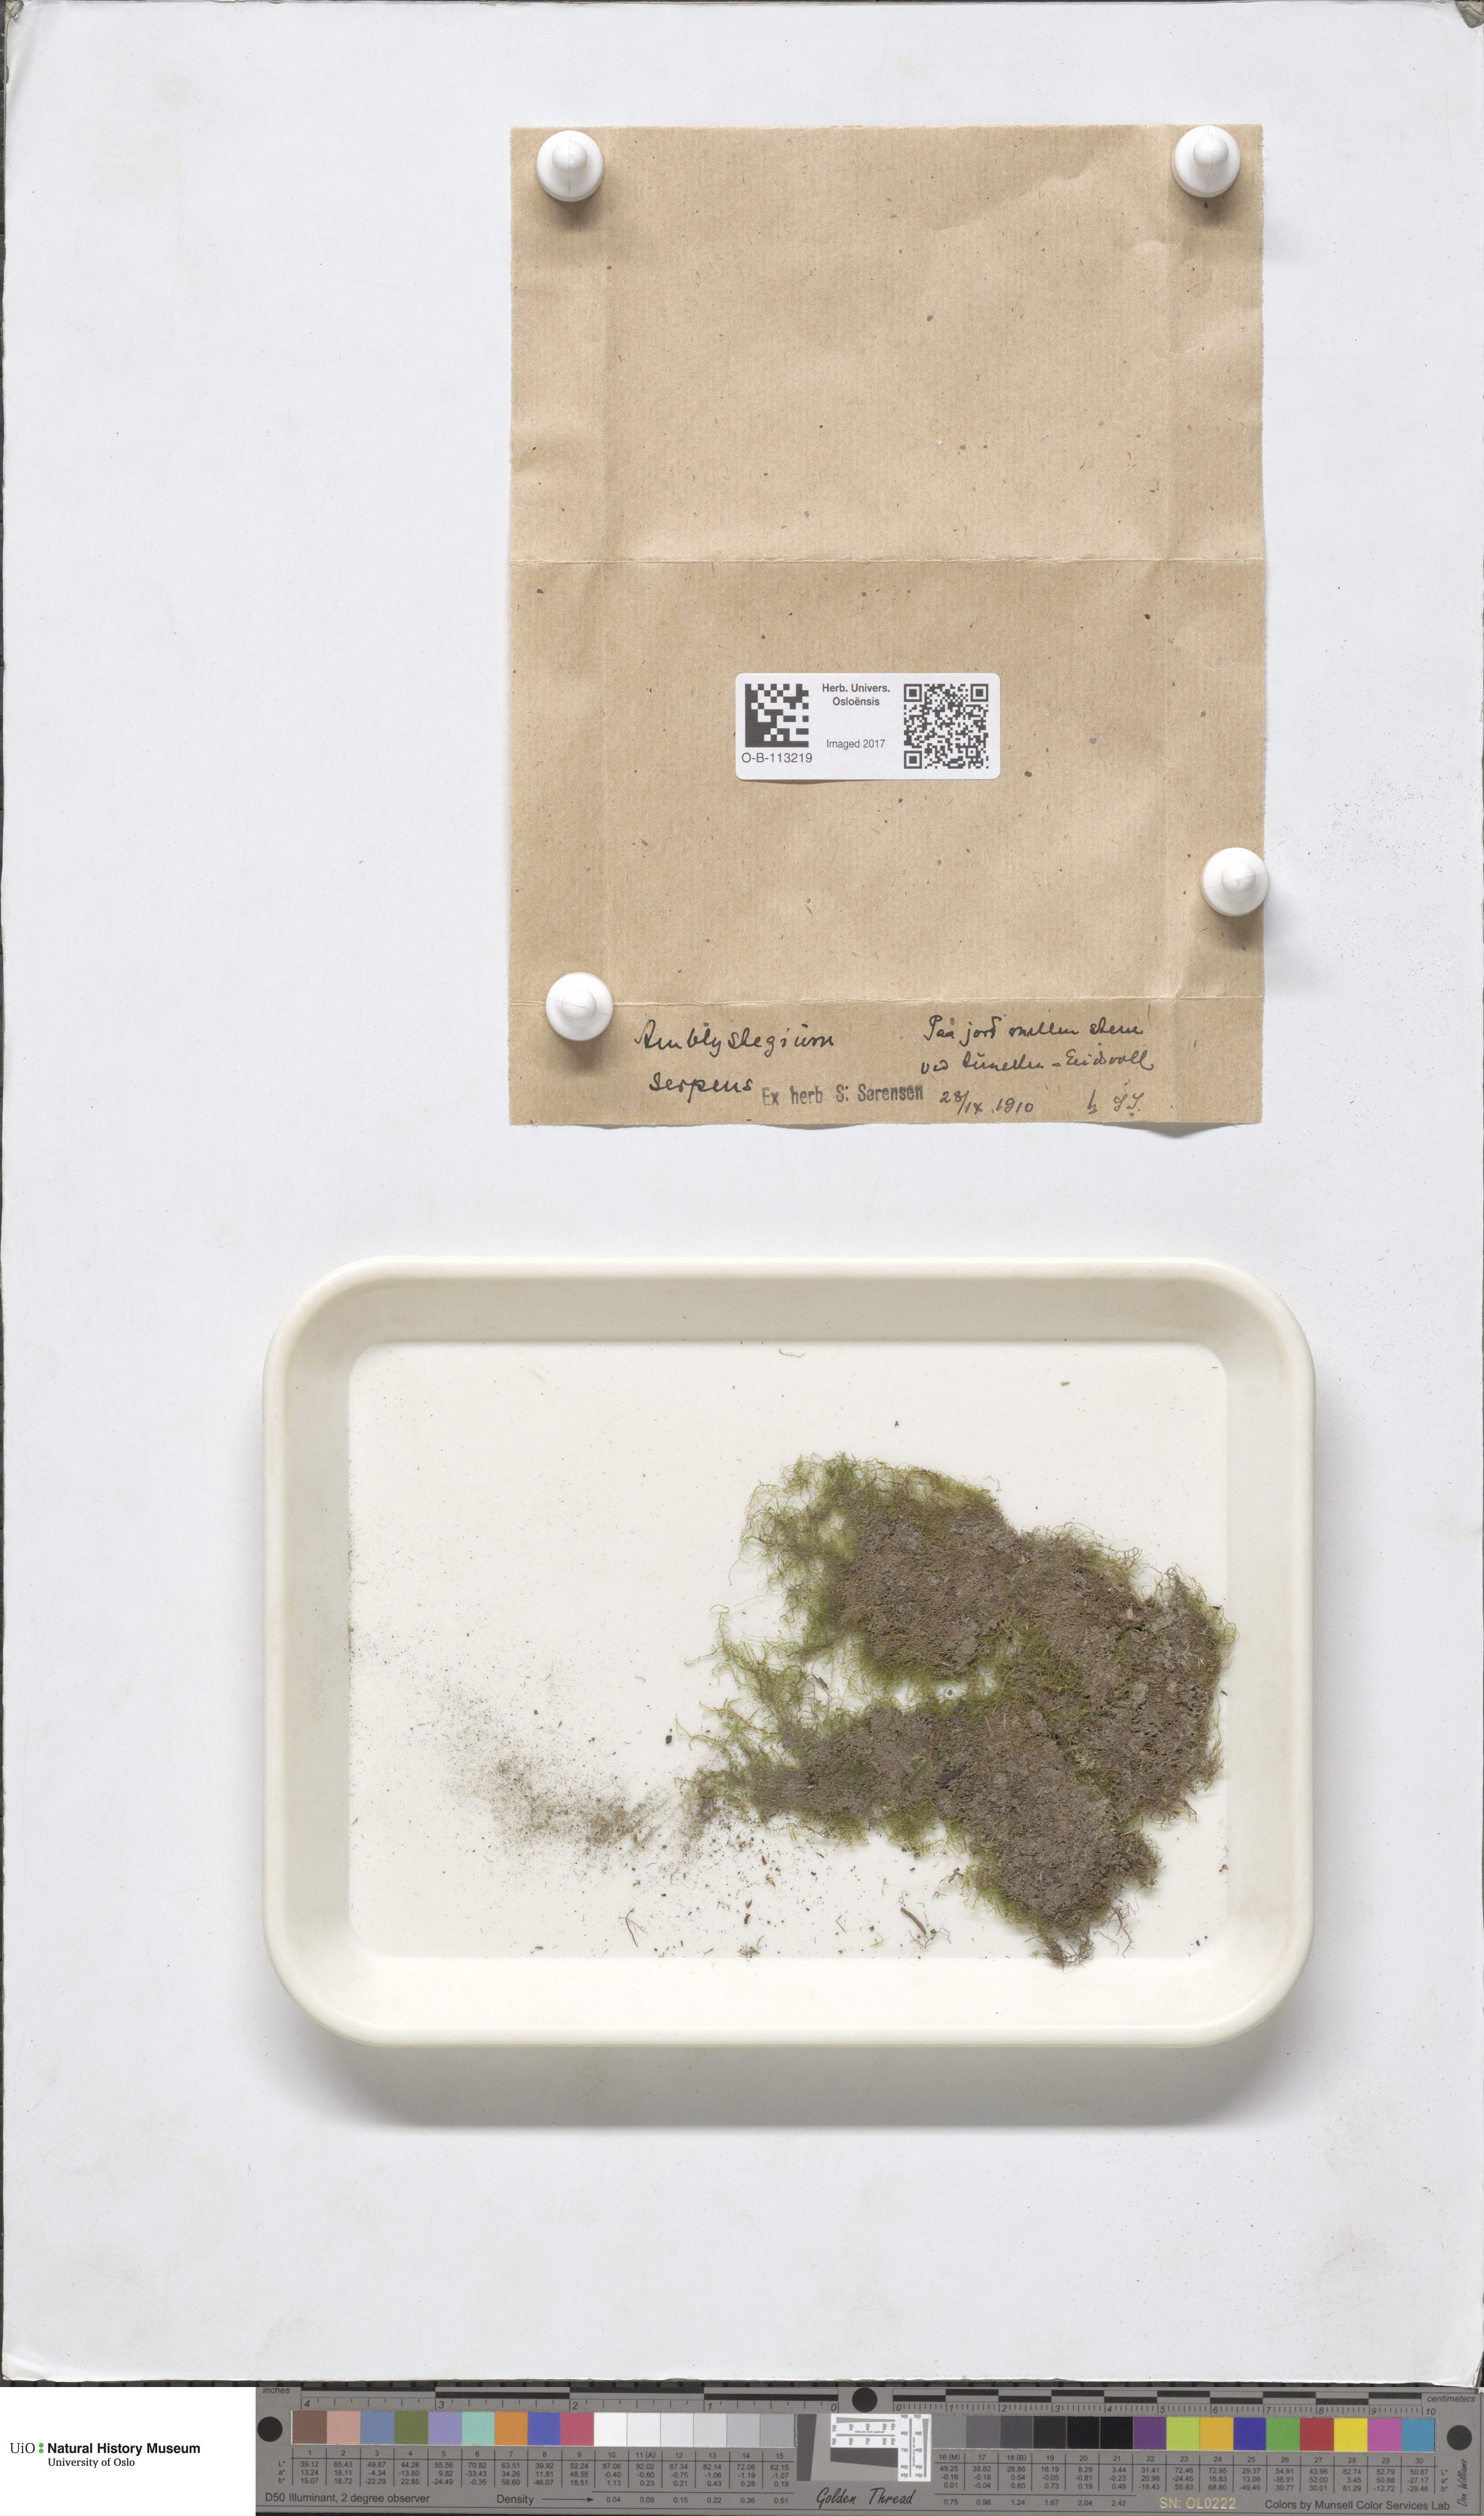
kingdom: Plantae
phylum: Bryophyta
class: Bryopsida
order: Hypnales
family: Amblystegiaceae
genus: Amblystegium
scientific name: Amblystegium serpens
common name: Jurkatzka's feather moss
